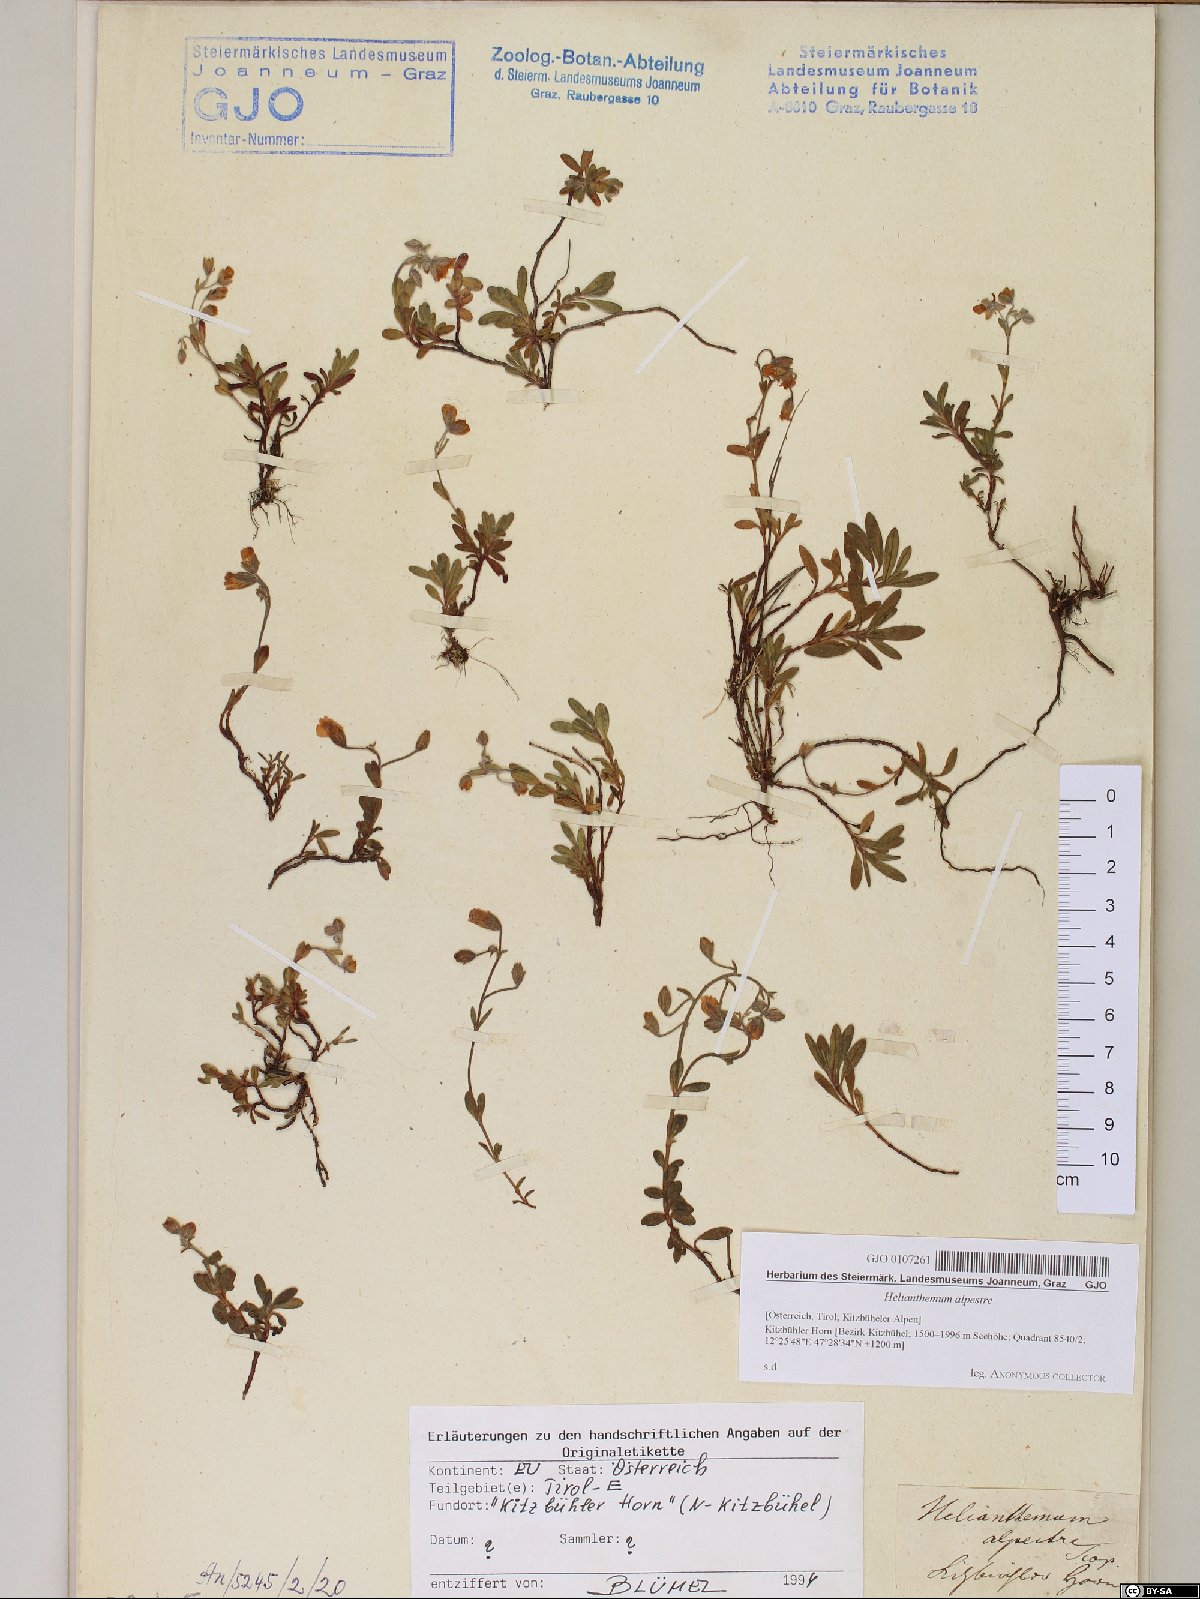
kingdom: Plantae
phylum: Tracheophyta
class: Magnoliopsida
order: Malvales
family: Cistaceae
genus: Helianthemum
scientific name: Helianthemum alpestre
